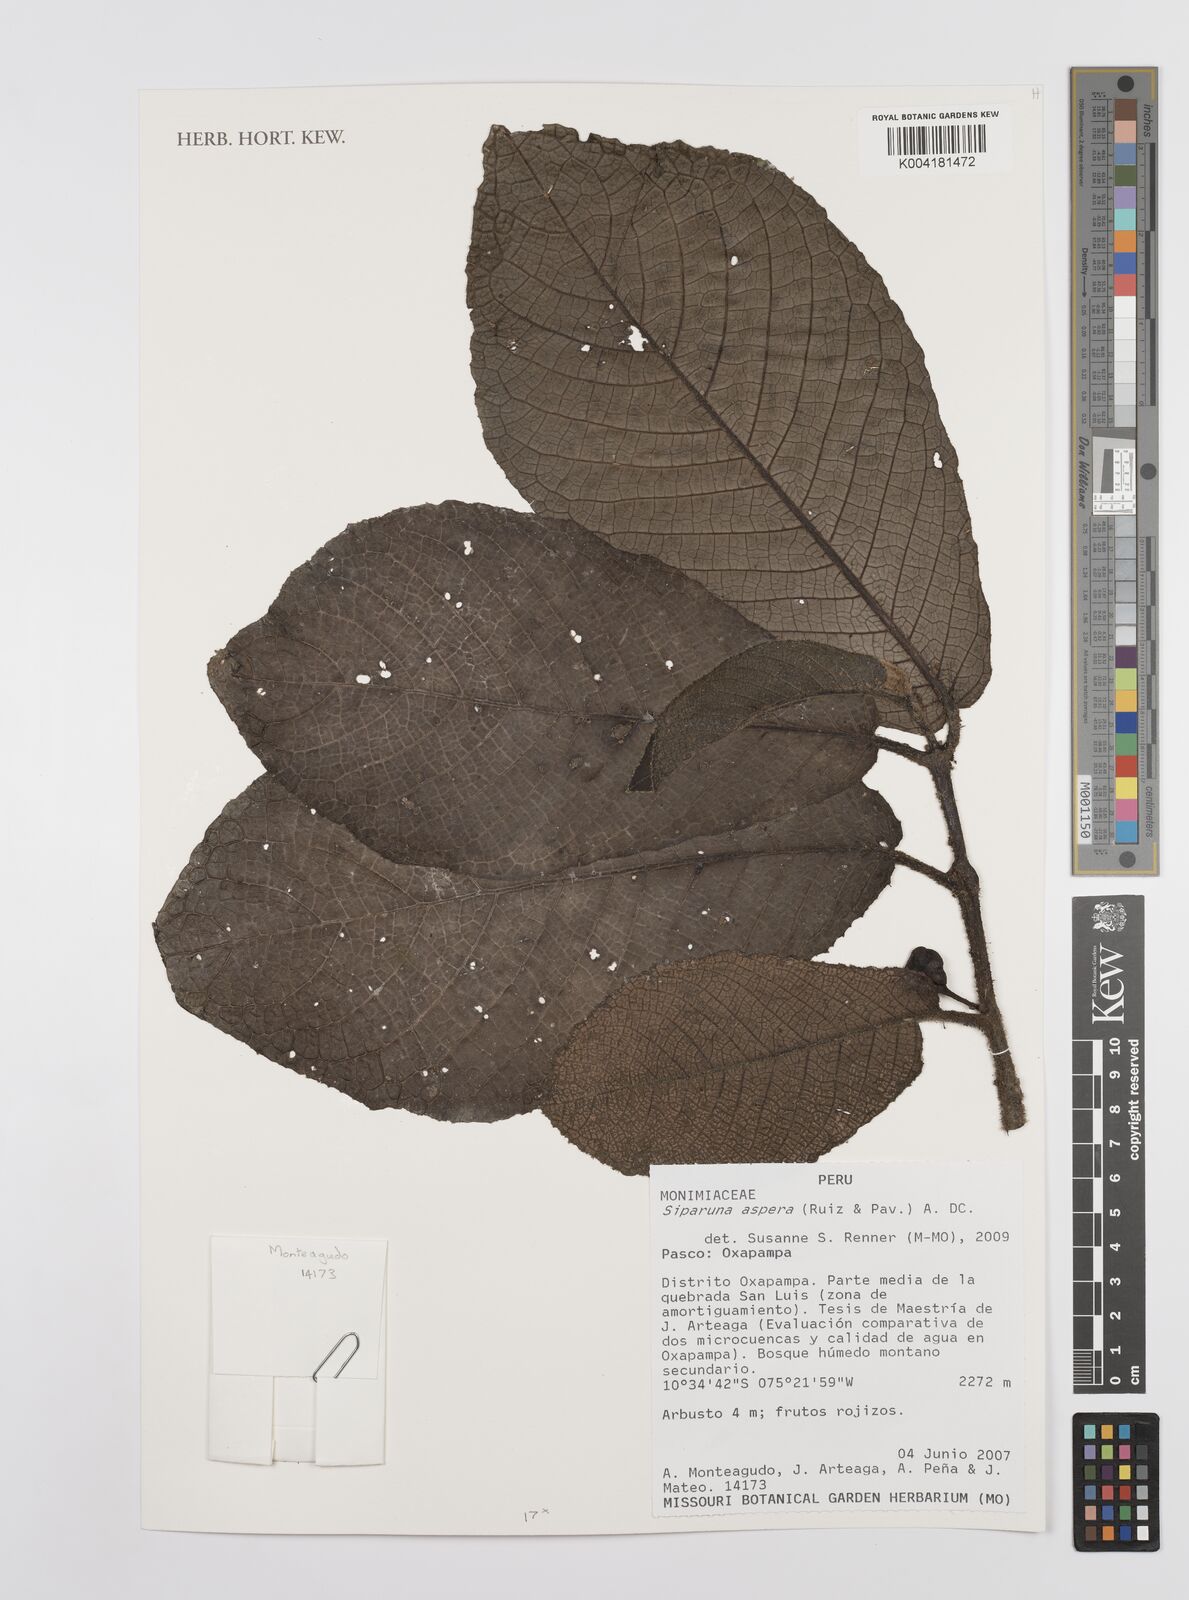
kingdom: Plantae
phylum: Tracheophyta
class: Magnoliopsida
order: Laurales
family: Siparunaceae
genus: Siparuna
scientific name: Siparuna aspera
